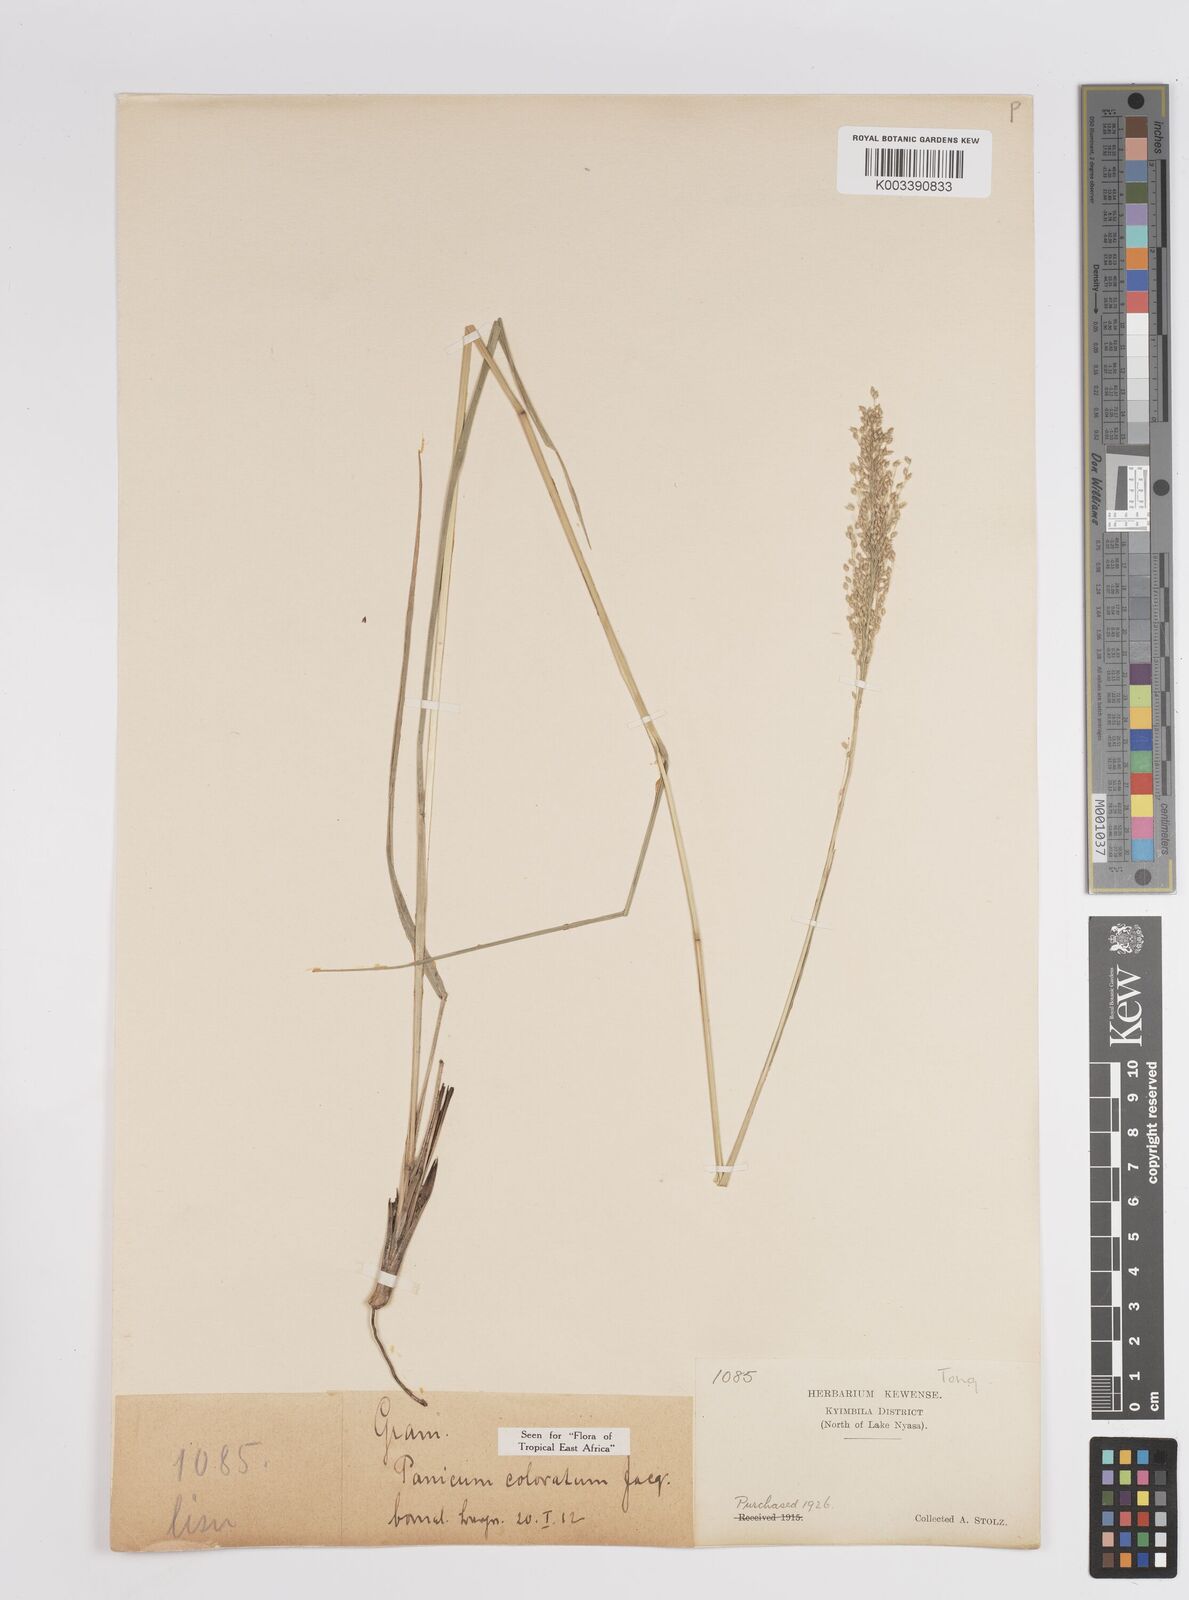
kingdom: Plantae
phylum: Tracheophyta
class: Liliopsida
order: Poales
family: Poaceae
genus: Panicum
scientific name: Panicum coloratum
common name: Kleingrass
